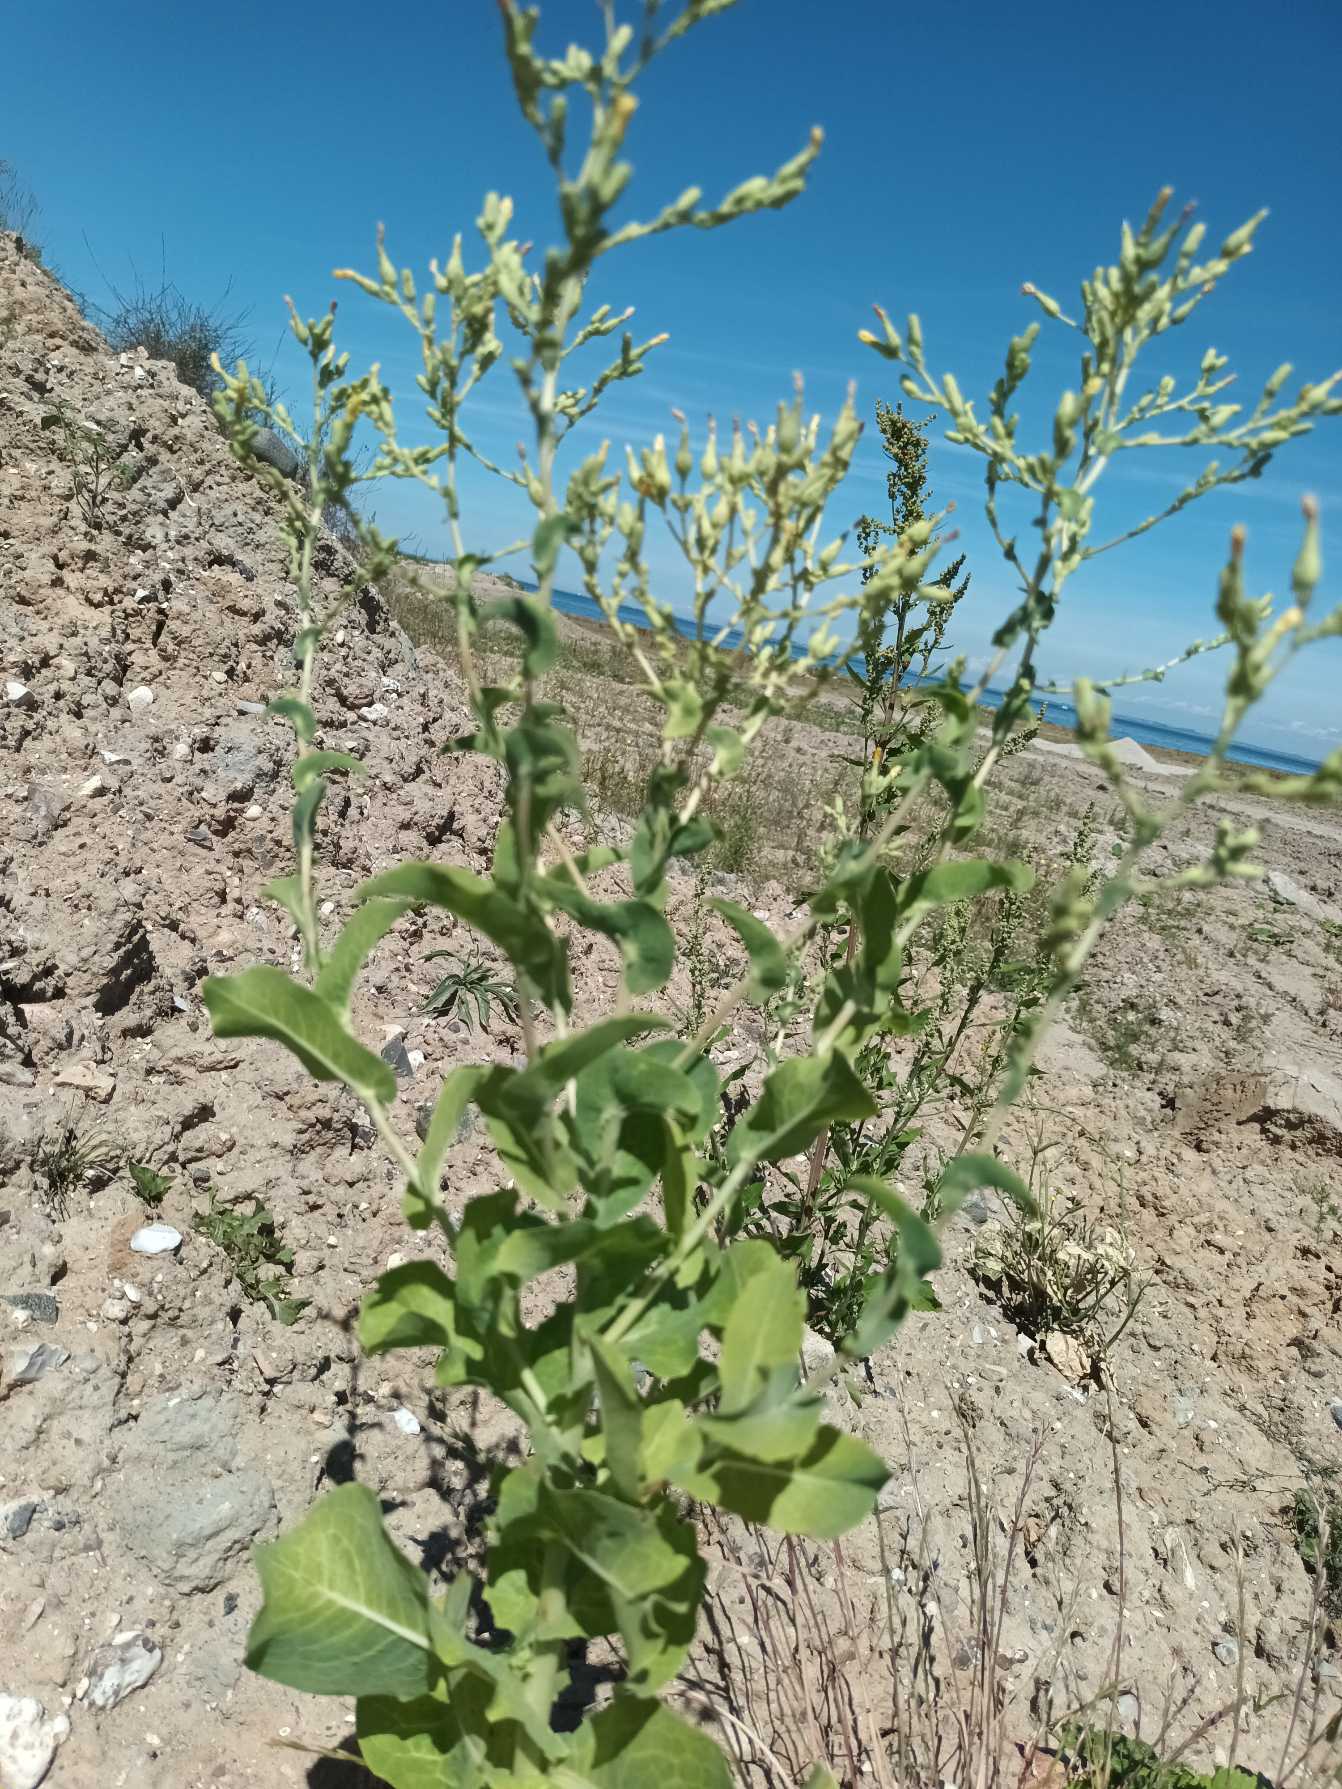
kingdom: Plantae
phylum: Tracheophyta
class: Magnoliopsida
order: Asterales
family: Asteraceae
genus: Lactuca
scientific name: Lactuca sativa
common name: Have-salat
